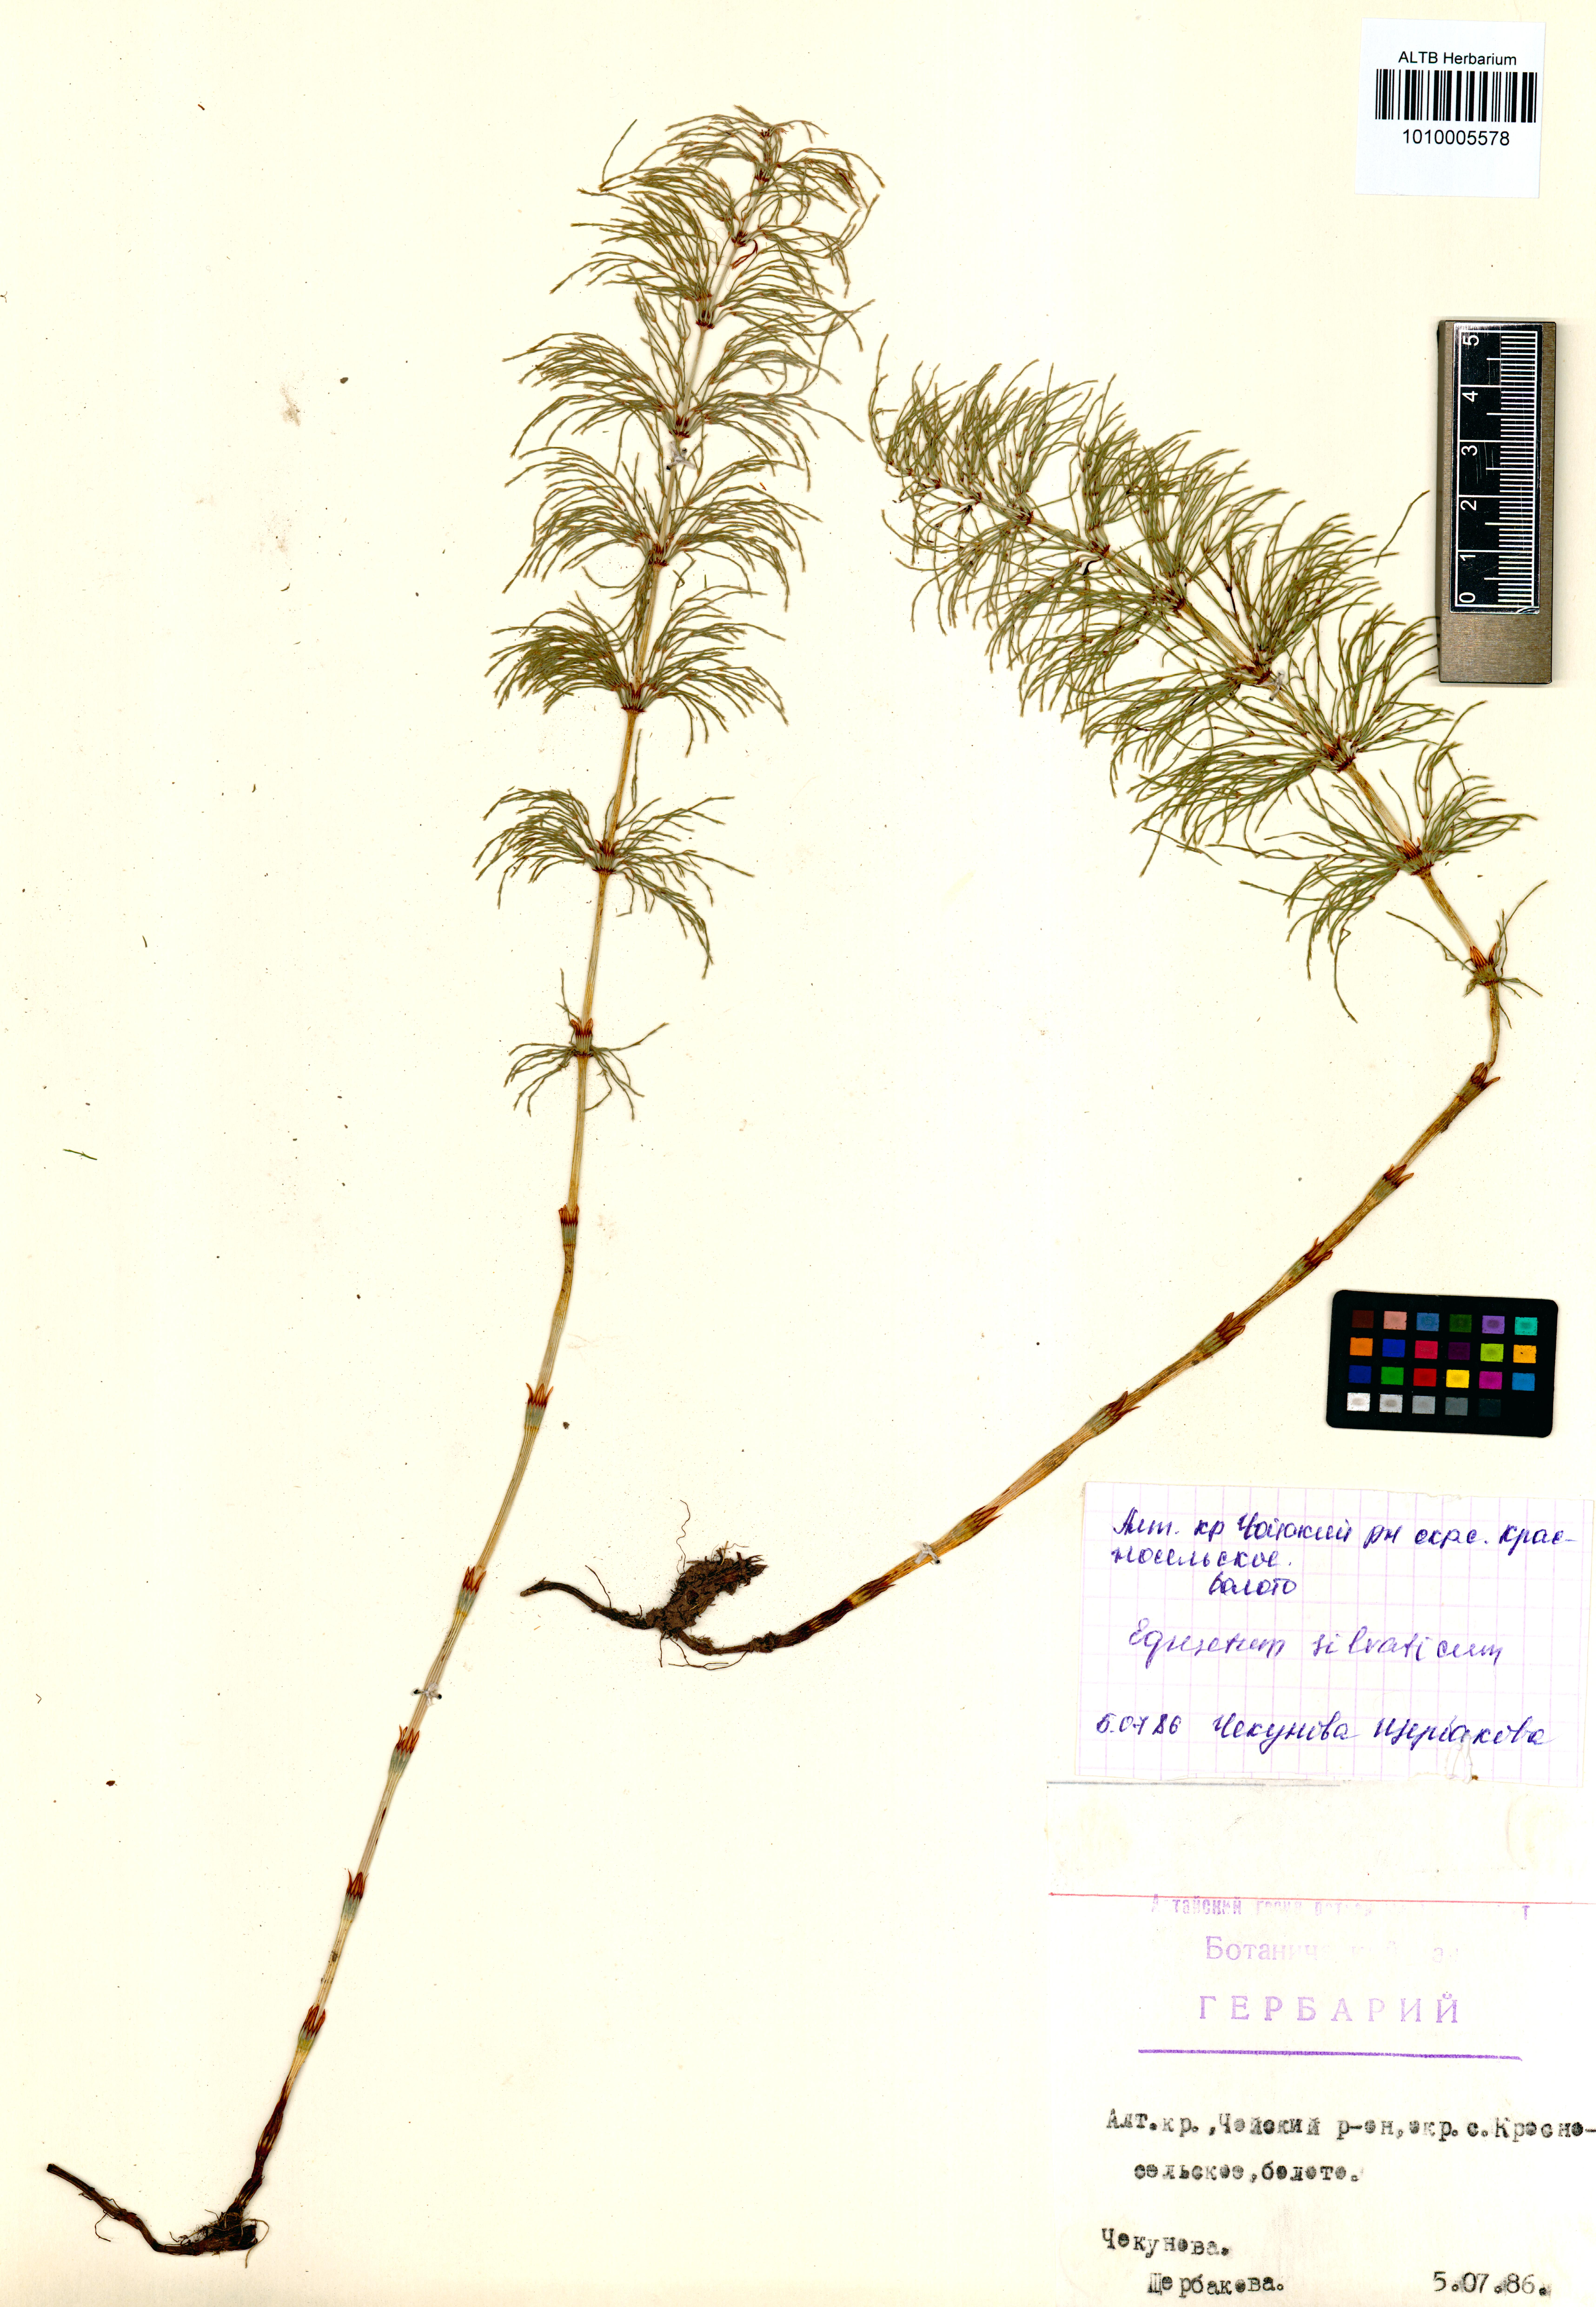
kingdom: Plantae
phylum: Tracheophyta
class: Polypodiopsida
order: Equisetales
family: Equisetaceae
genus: Equisetum
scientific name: Equisetum sylvaticum
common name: Wood horsetail
